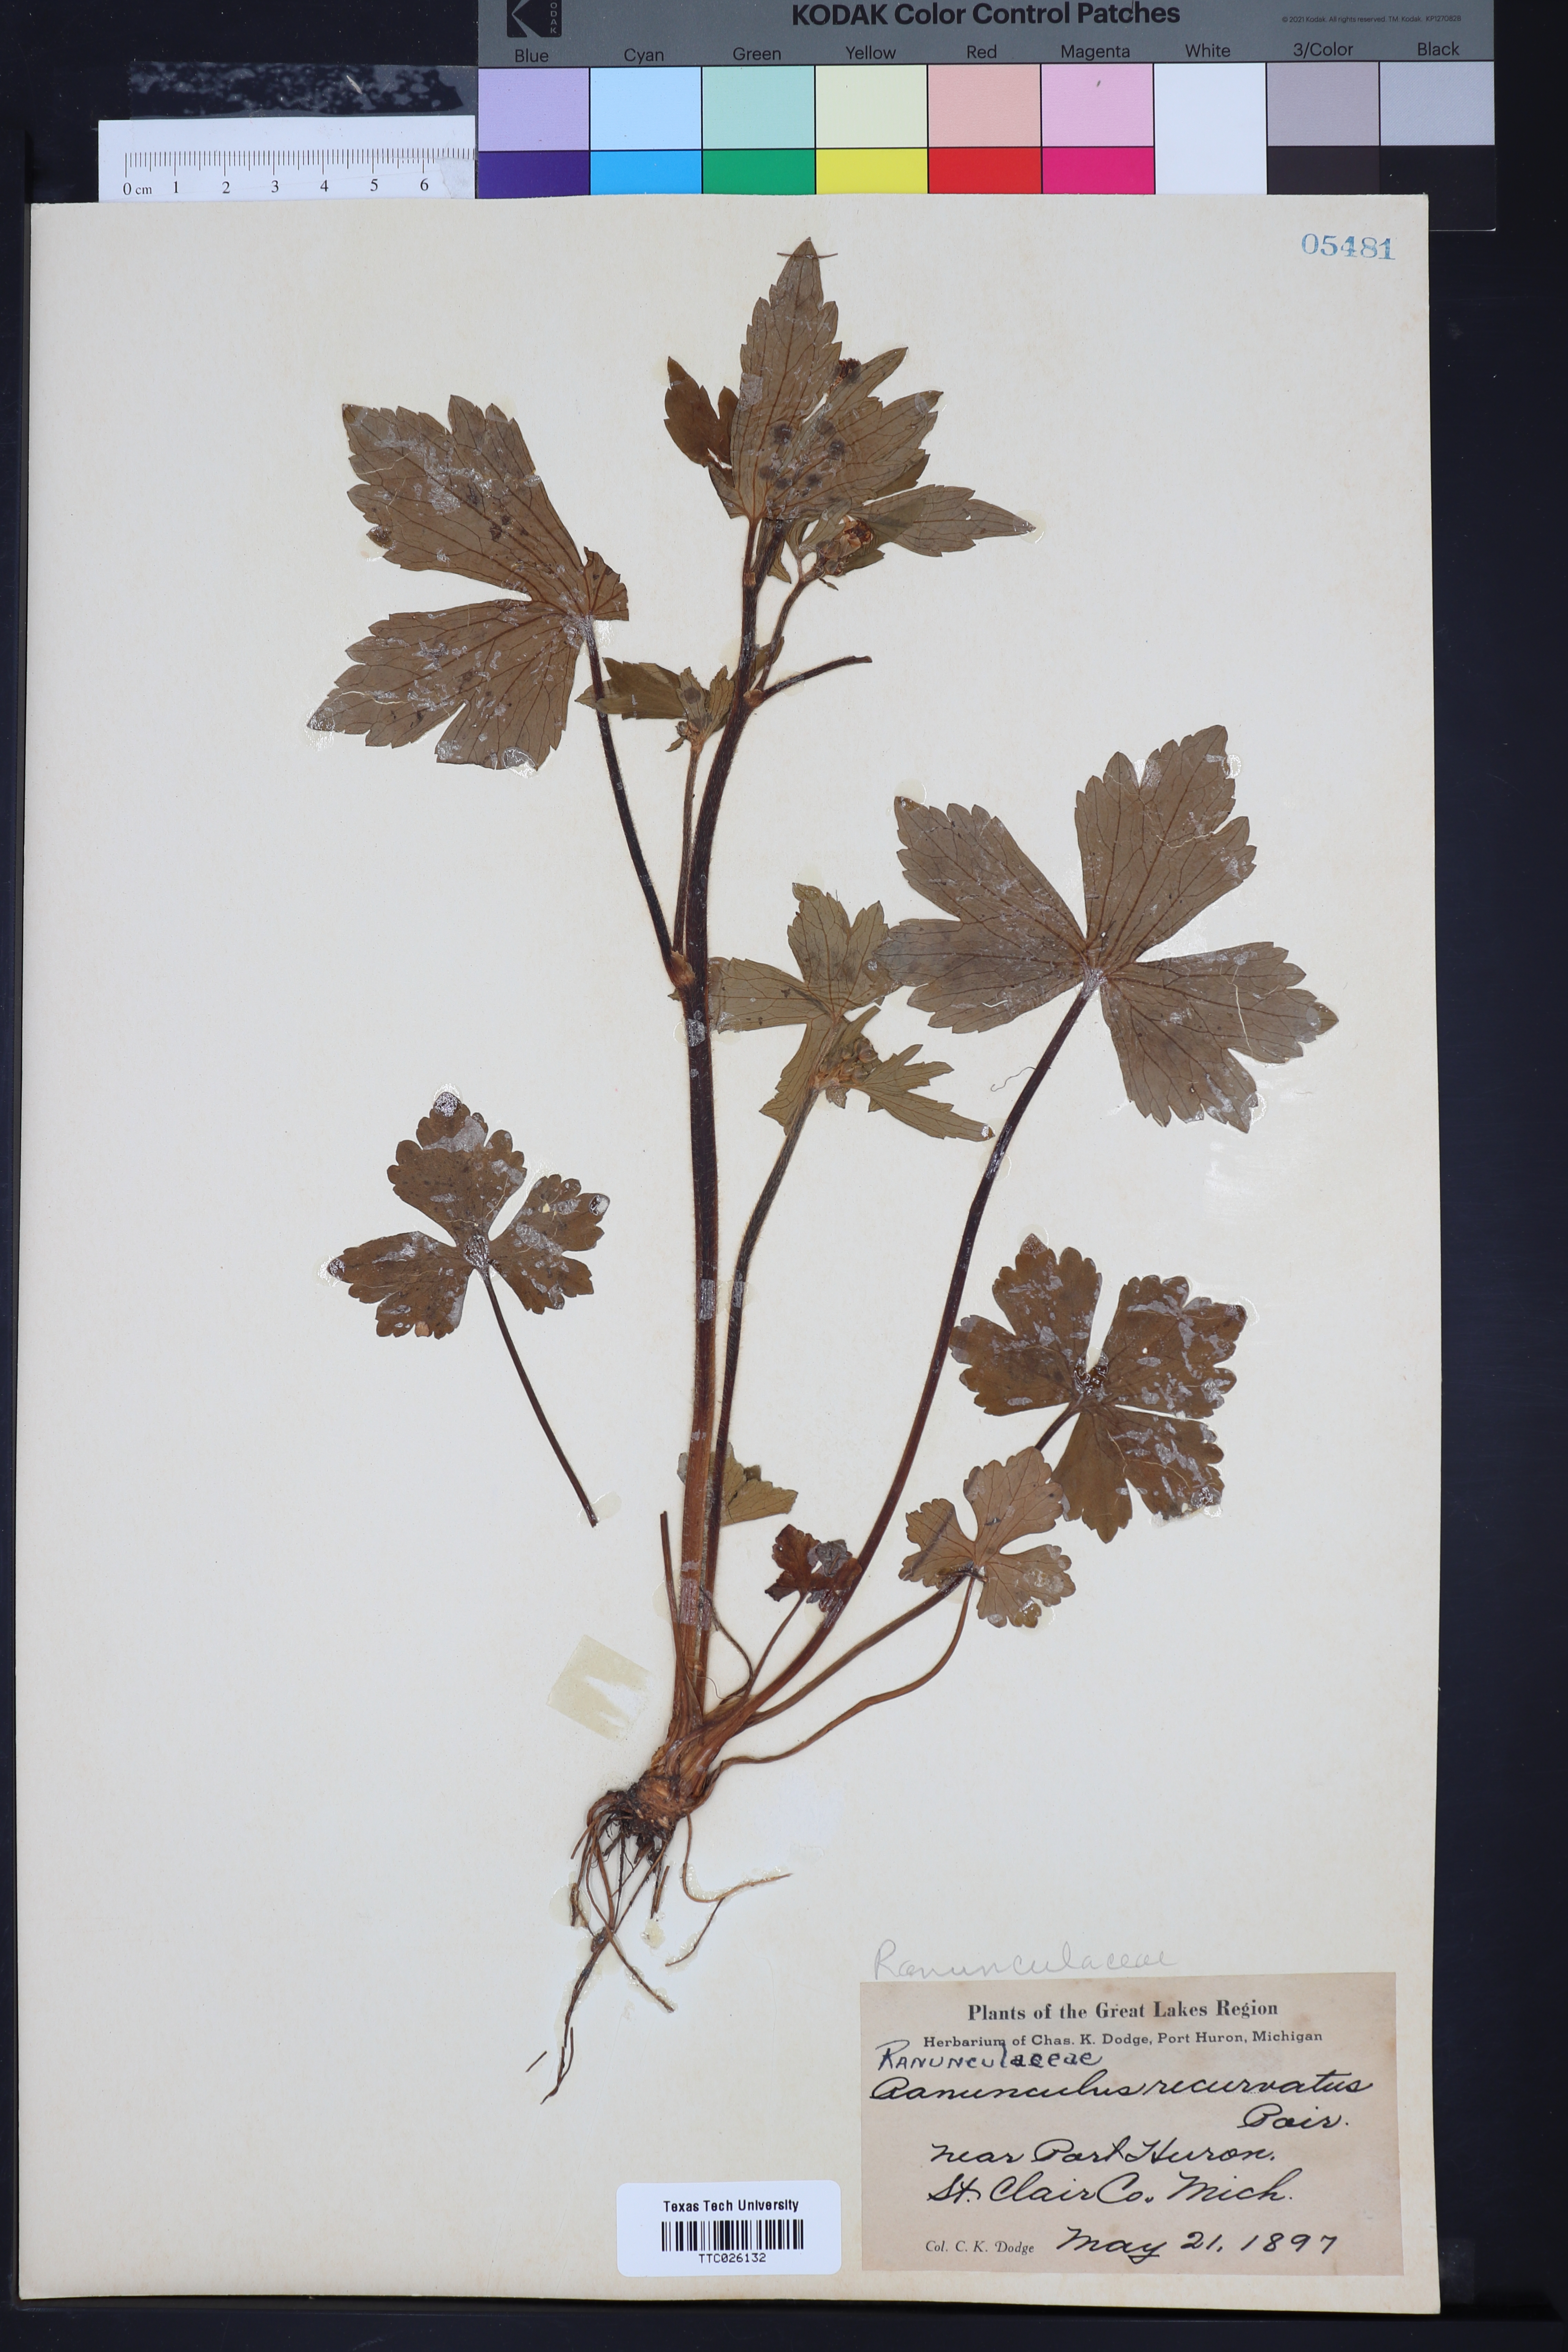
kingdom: Plantae
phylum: Tracheophyta
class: Magnoliopsida
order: Ranunculales
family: Ranunculaceae
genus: Ranunculus
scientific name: Ranunculus recurvatus
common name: Blisterwort
